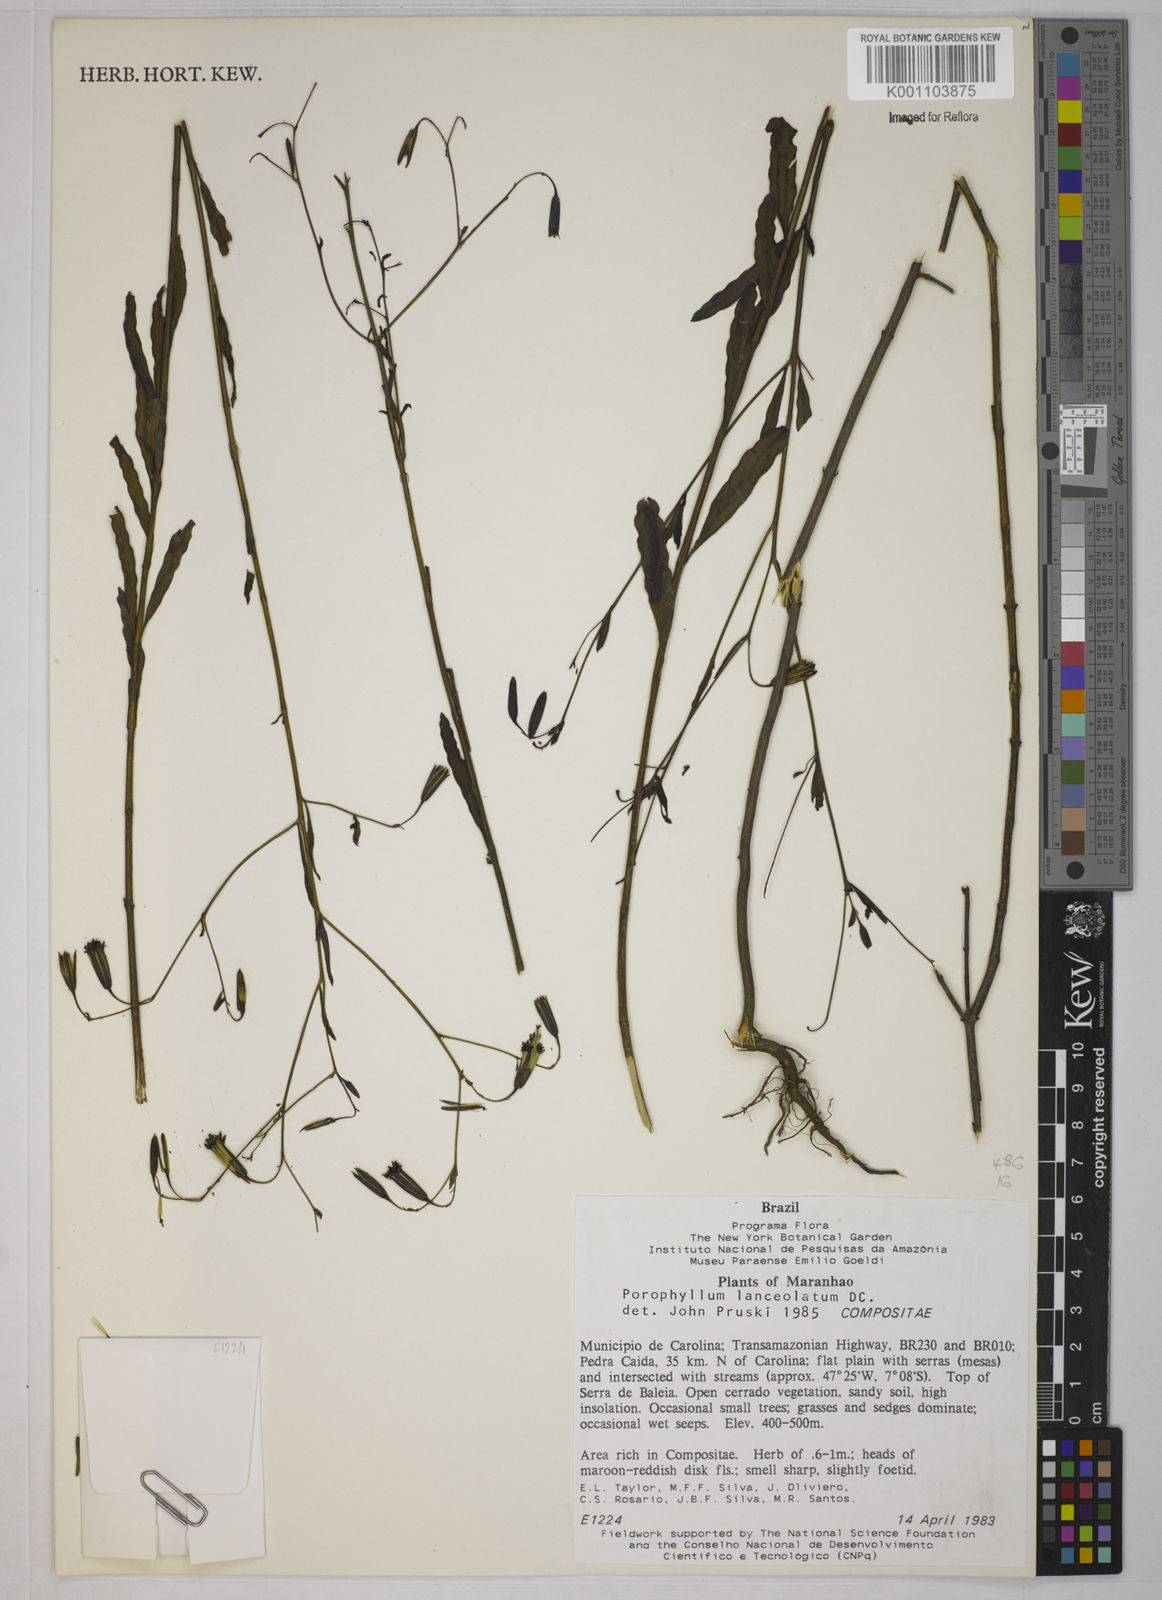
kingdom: Plantae
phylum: Tracheophyta
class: Magnoliopsida
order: Asterales
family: Asteraceae
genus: Porophyllum
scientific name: Porophyllum obscurum
